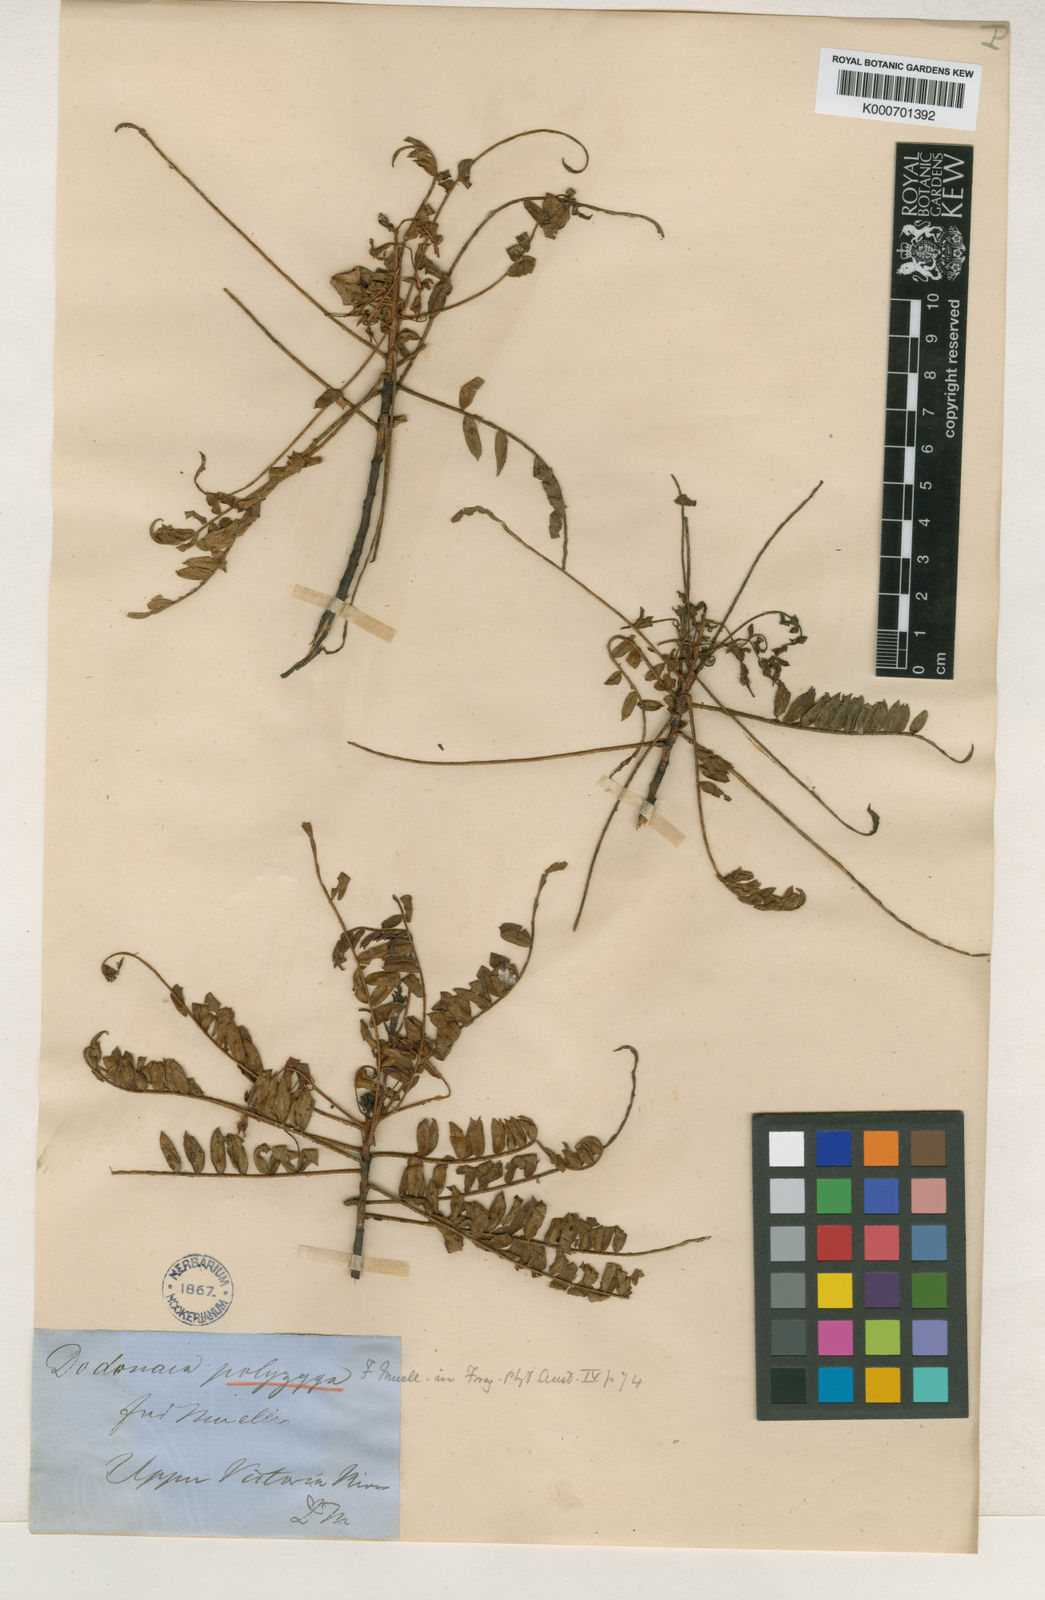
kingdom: Plantae
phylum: Tracheophyta
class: Magnoliopsida
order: Sapindales
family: Sapindaceae
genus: Dodonaea
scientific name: Dodonaea polyzyga
